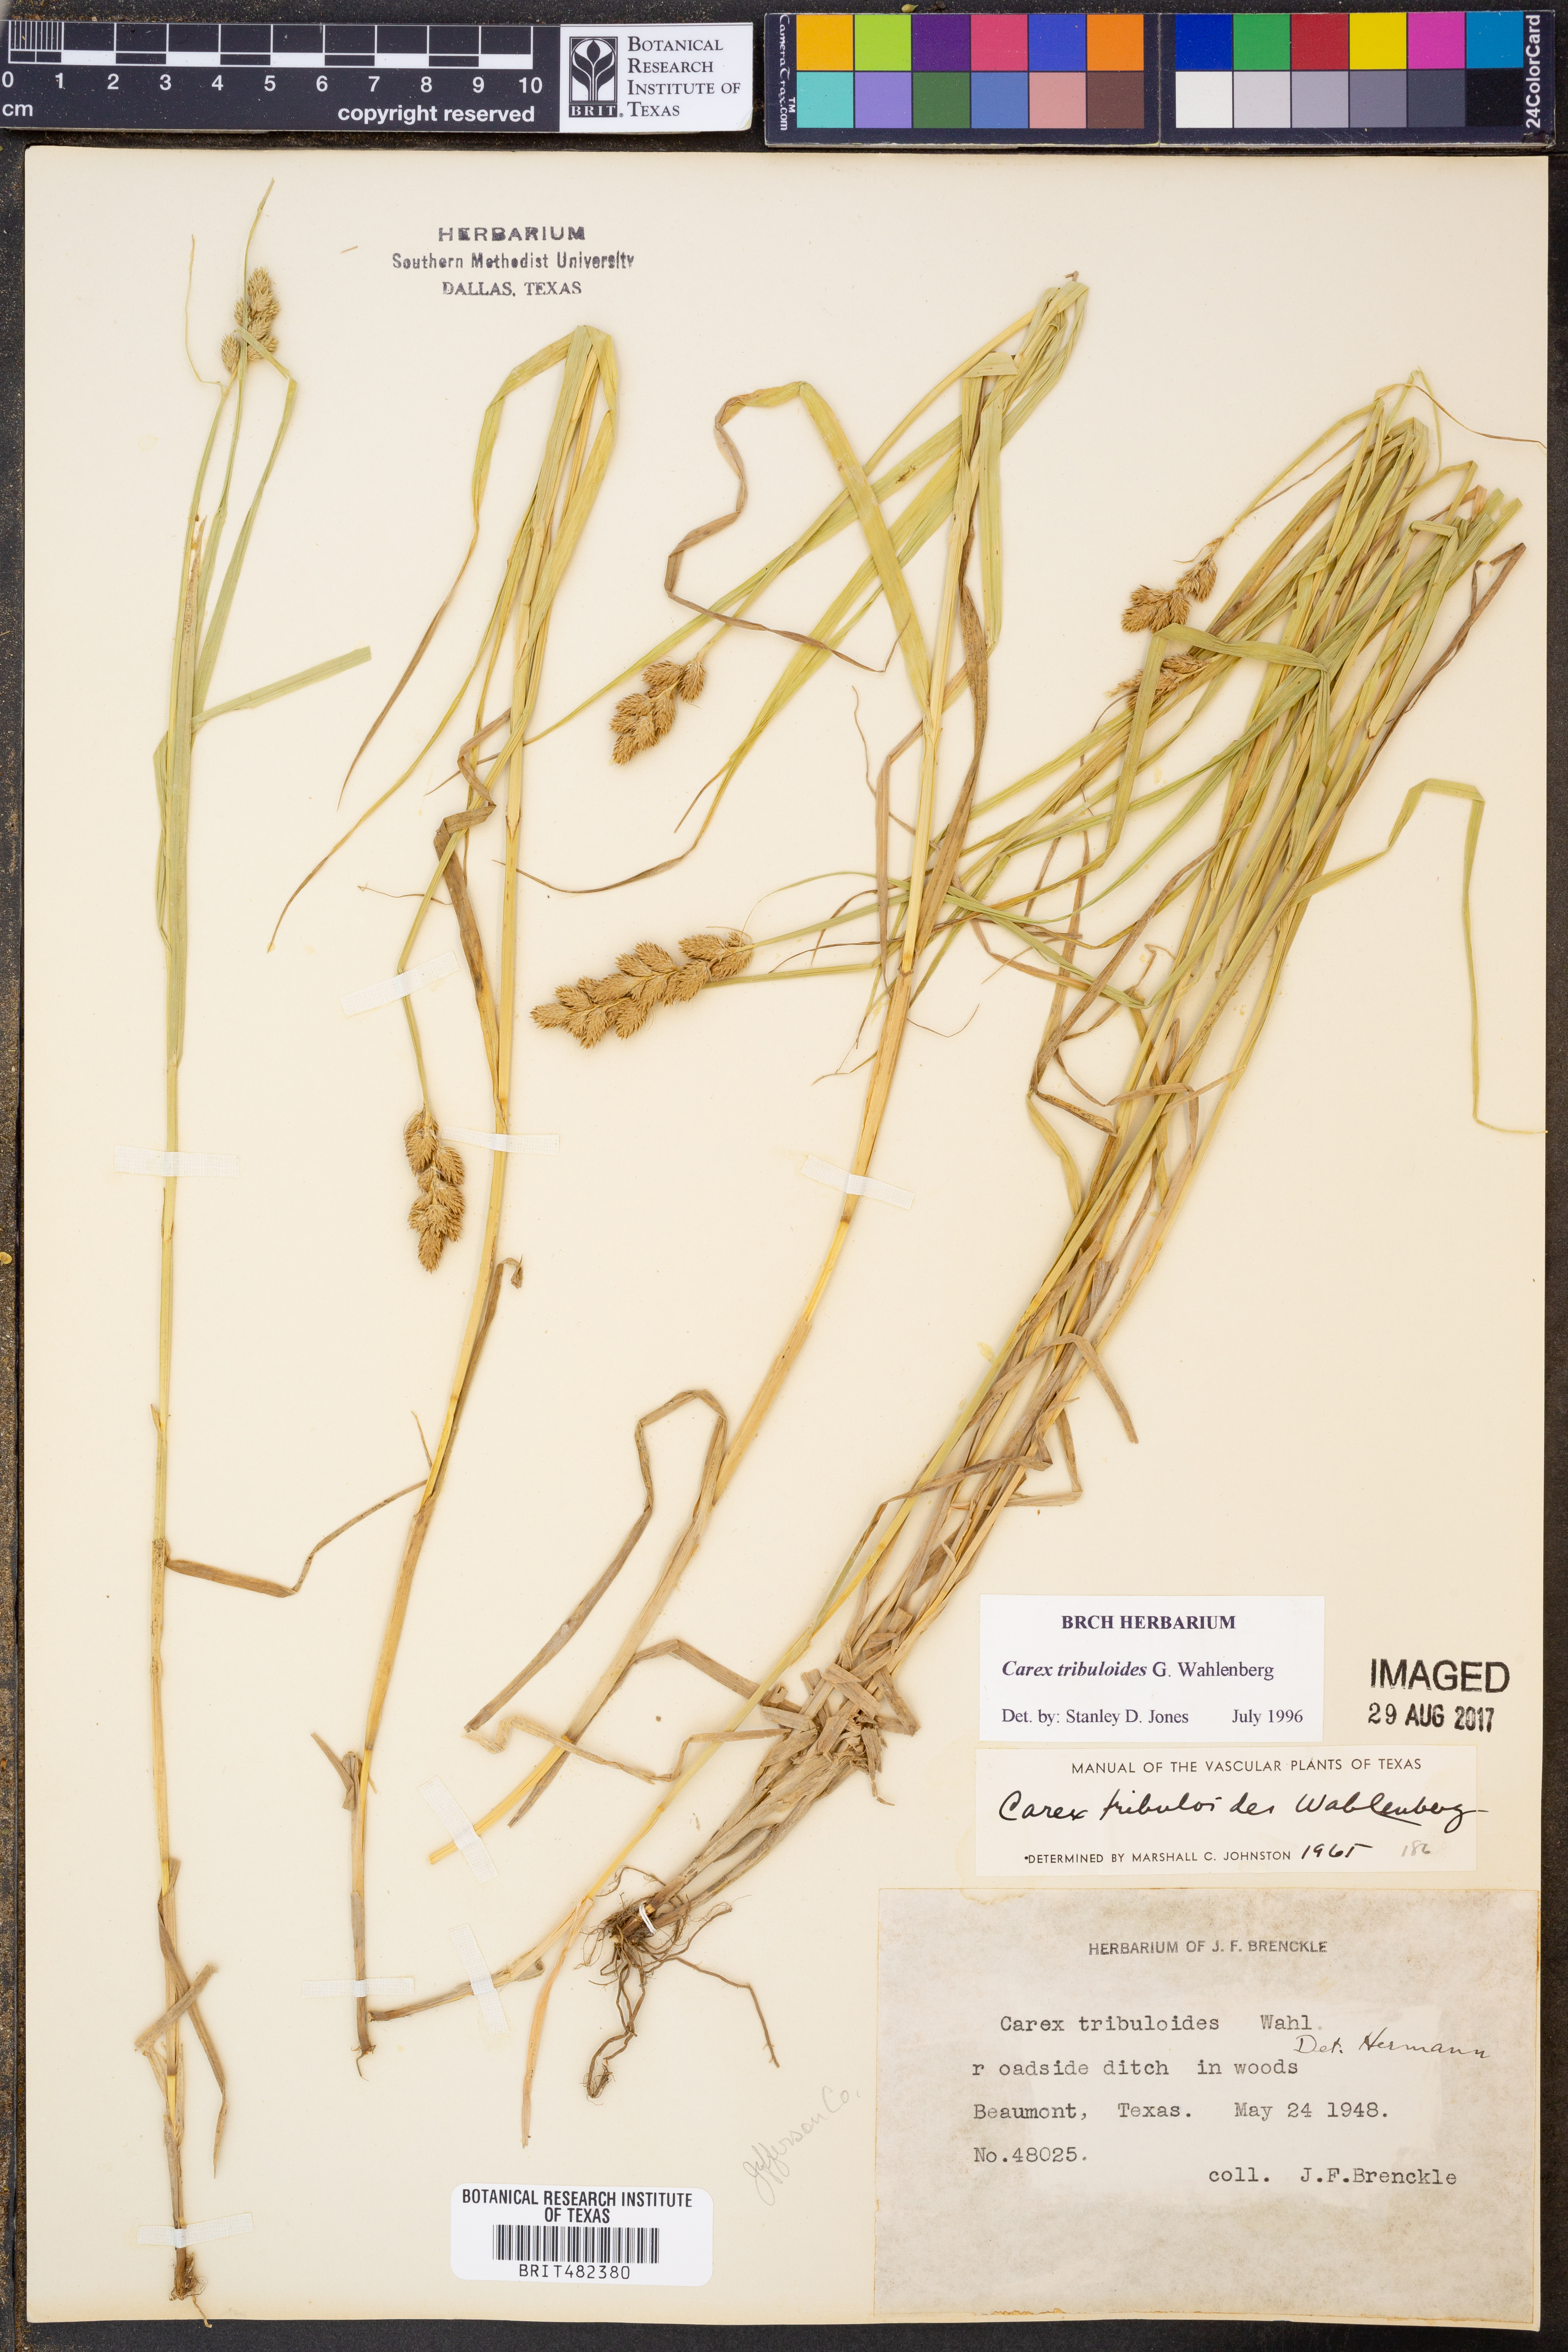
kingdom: Plantae
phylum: Tracheophyta
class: Liliopsida
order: Poales
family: Cyperaceae
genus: Carex
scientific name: Carex tribuloides
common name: Blunt broom sedge
